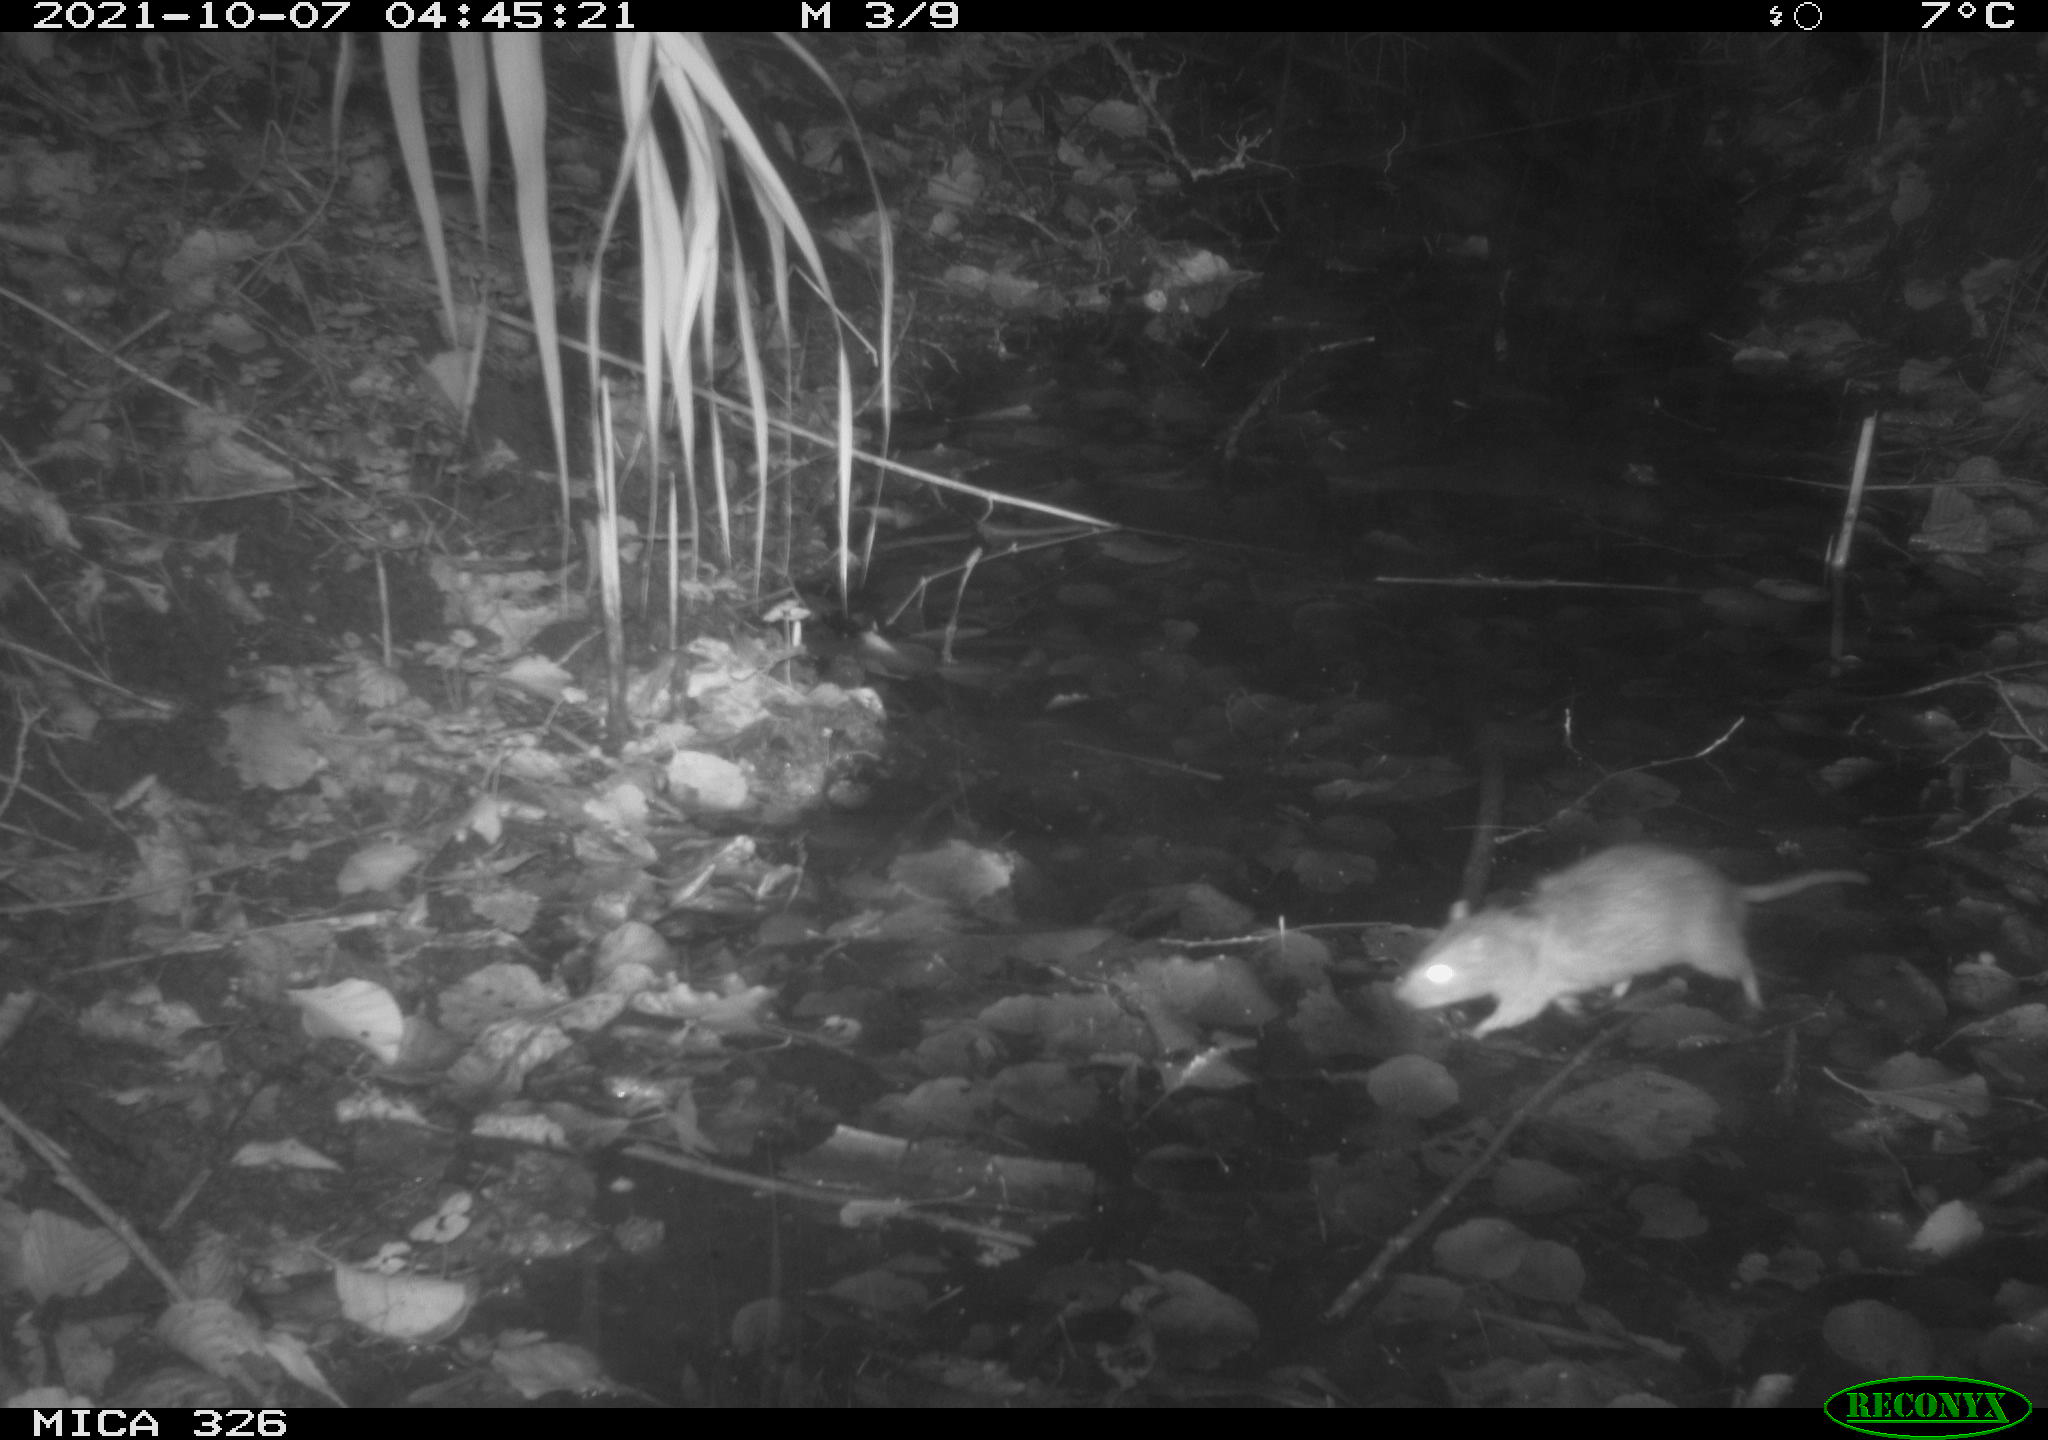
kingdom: Animalia
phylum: Chordata
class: Mammalia
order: Rodentia
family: Muridae
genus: Rattus
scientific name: Rattus norvegicus
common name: Brown rat
